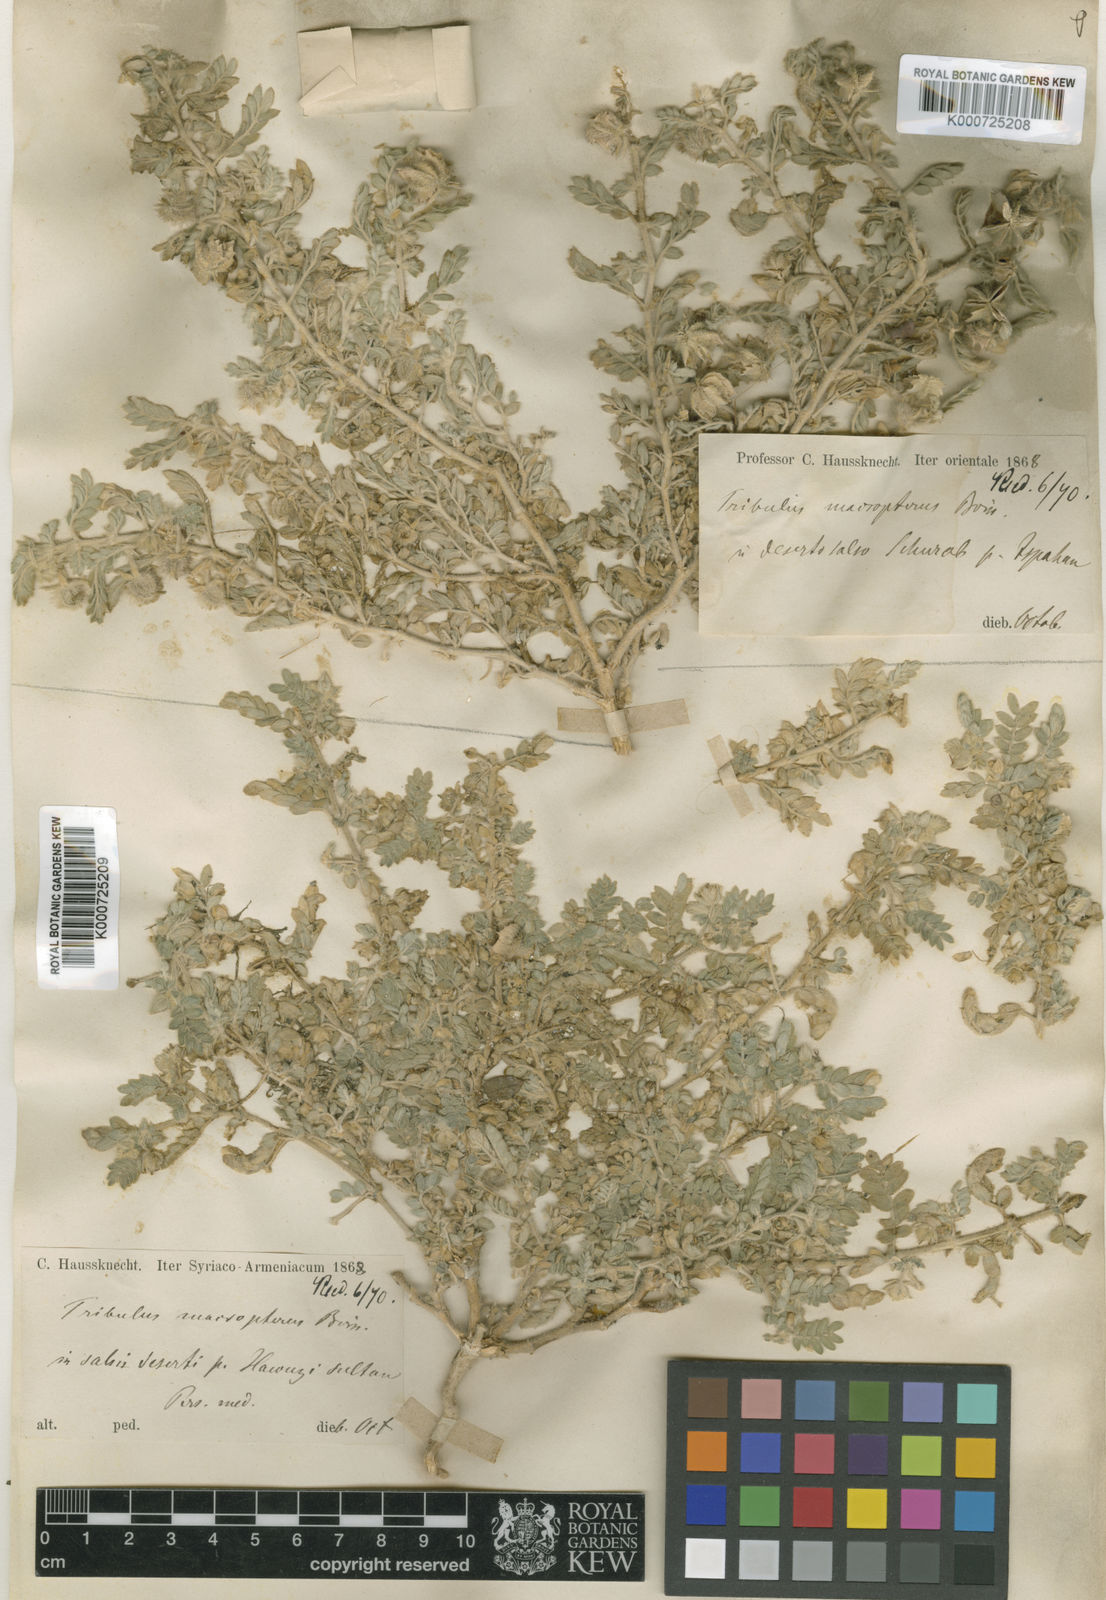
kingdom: Plantae
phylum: Tracheophyta
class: Magnoliopsida
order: Zygophyllales
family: Zygophyllaceae
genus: Tribulus
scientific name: Tribulus macropterus
